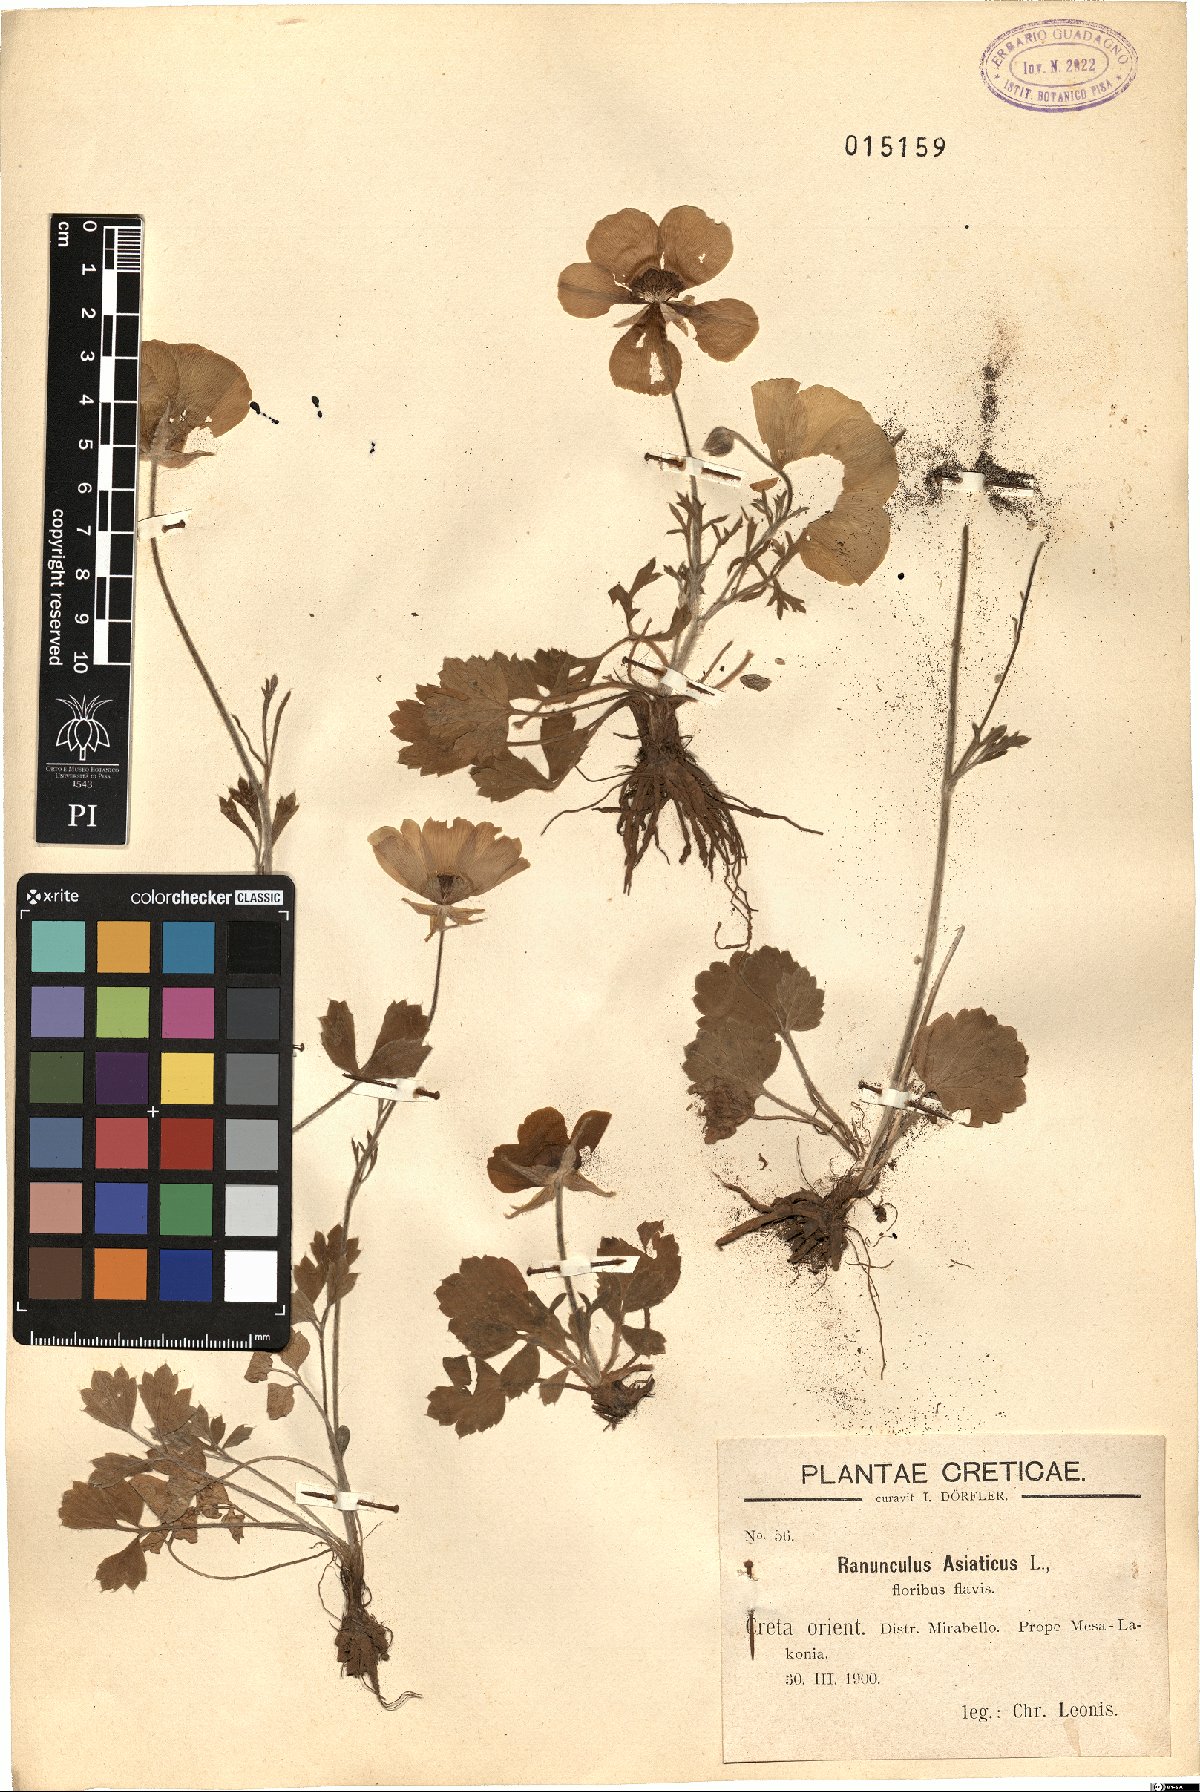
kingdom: Plantae
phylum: Tracheophyta
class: Magnoliopsida
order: Ranunculales
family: Ranunculaceae
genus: Ranunculus
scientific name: Ranunculus asiaticus
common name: Persian buttercup
